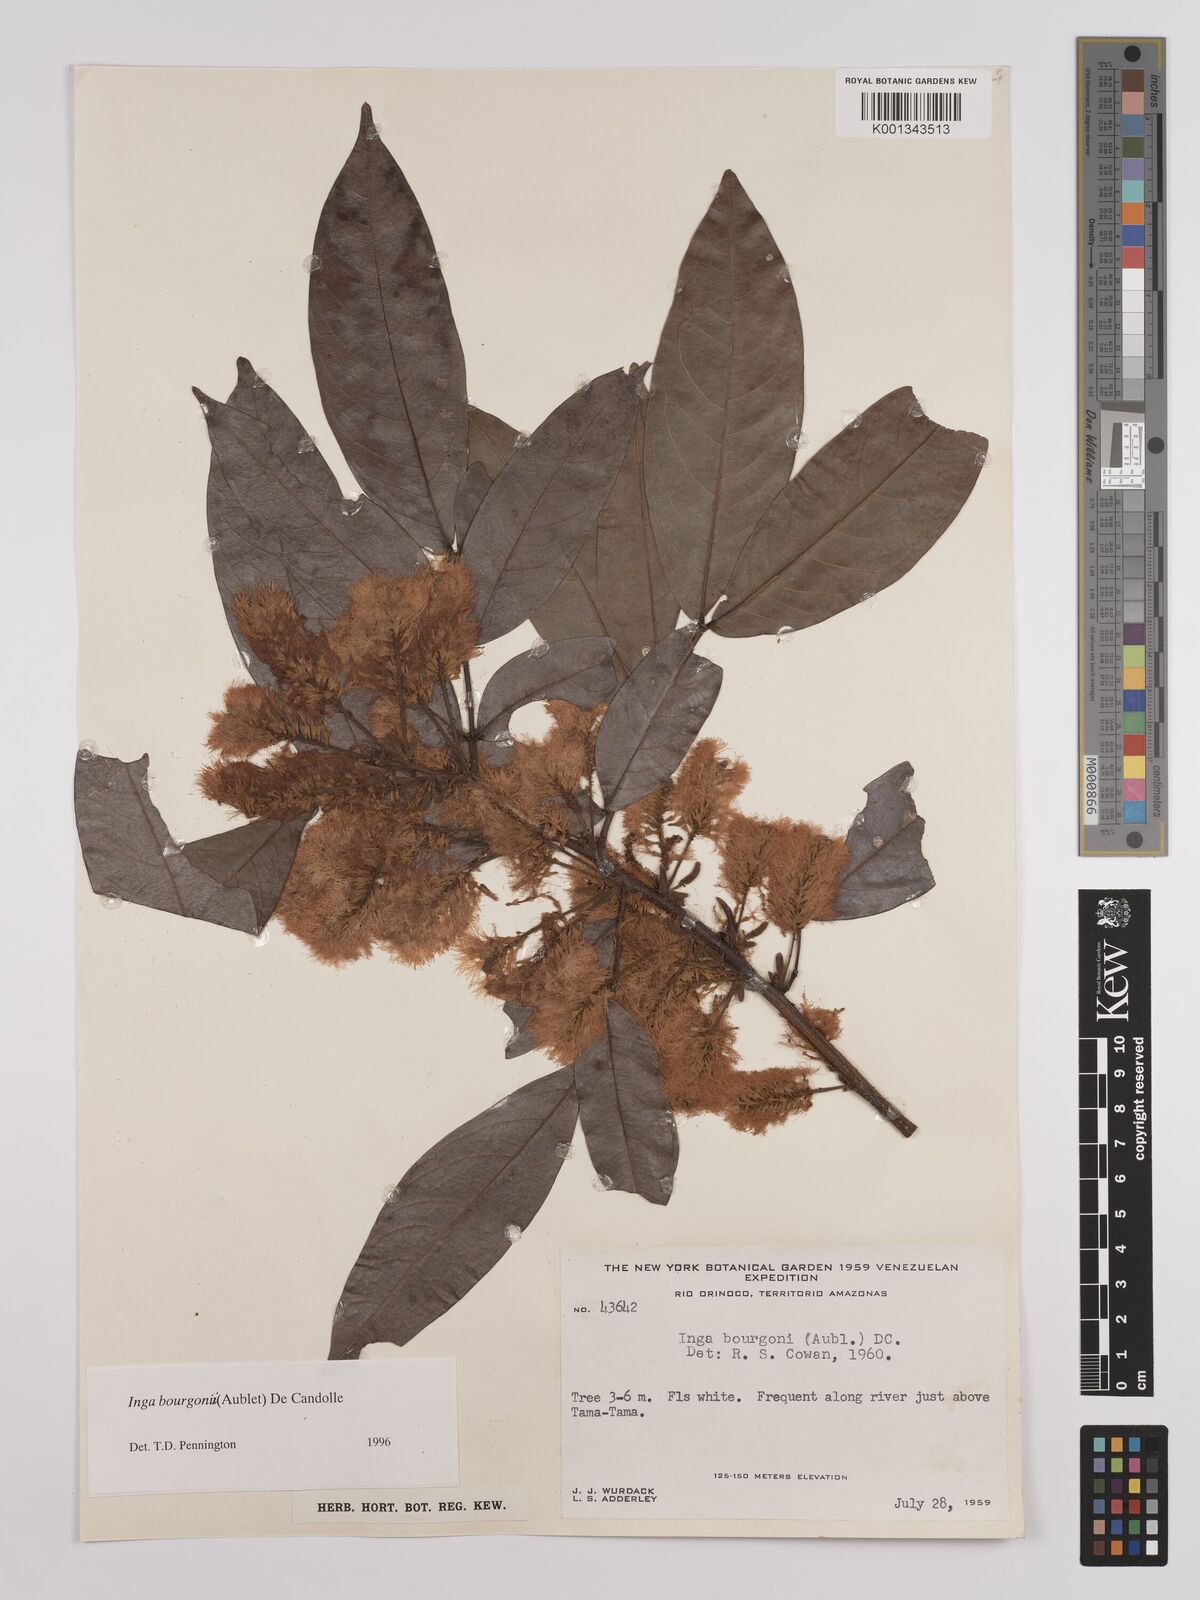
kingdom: Plantae
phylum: Tracheophyta
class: Magnoliopsida
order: Fabales
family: Fabaceae
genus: Inga
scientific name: Inga bourgoni
